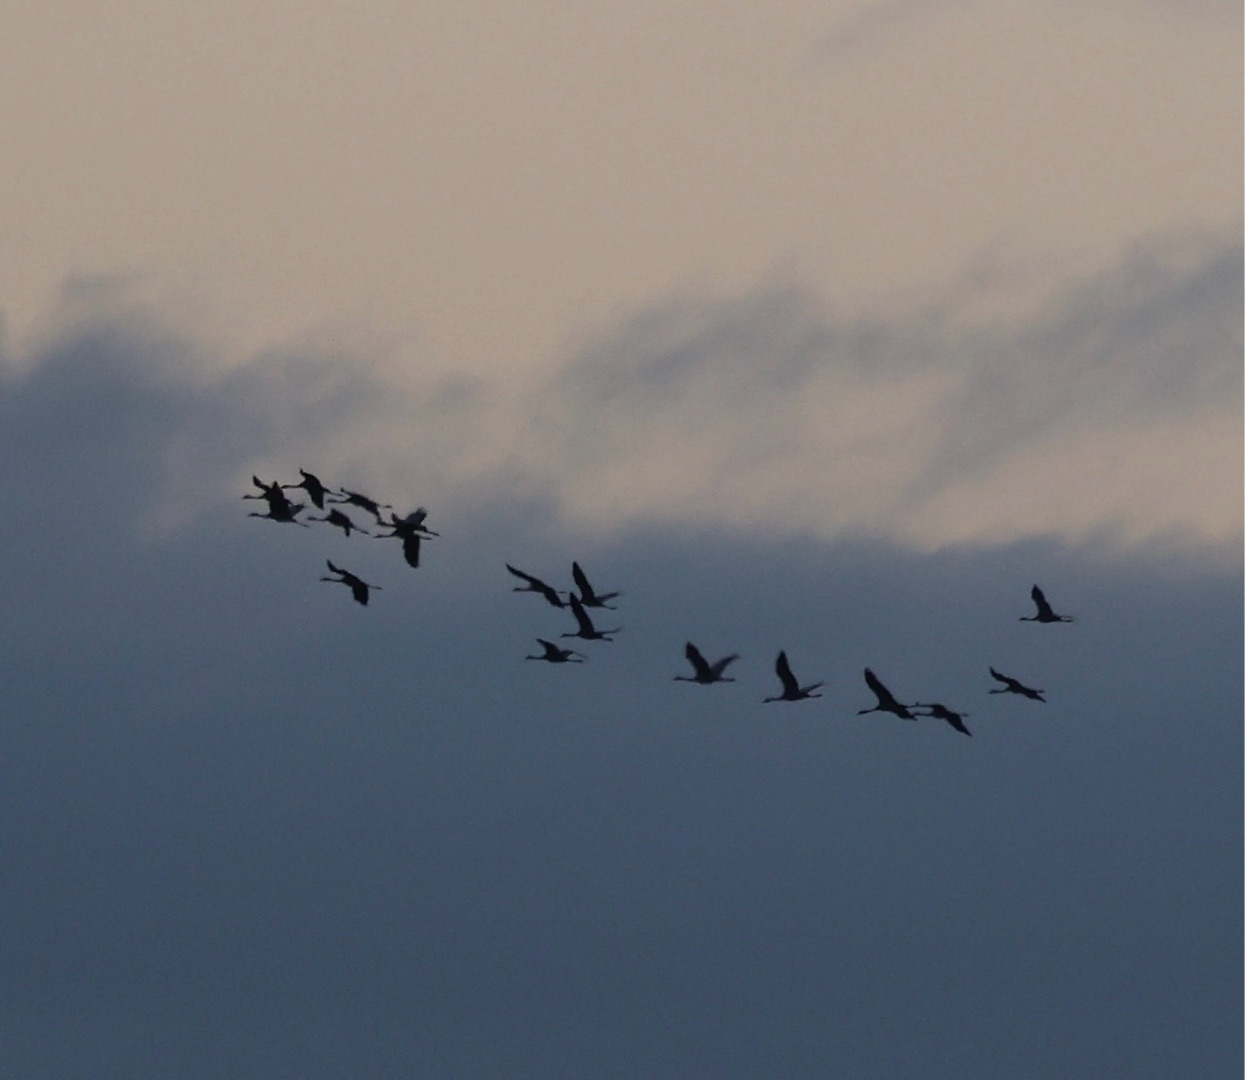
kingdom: Animalia
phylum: Chordata
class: Aves
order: Gruiformes
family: Gruidae
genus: Grus
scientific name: Grus grus
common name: Trane
